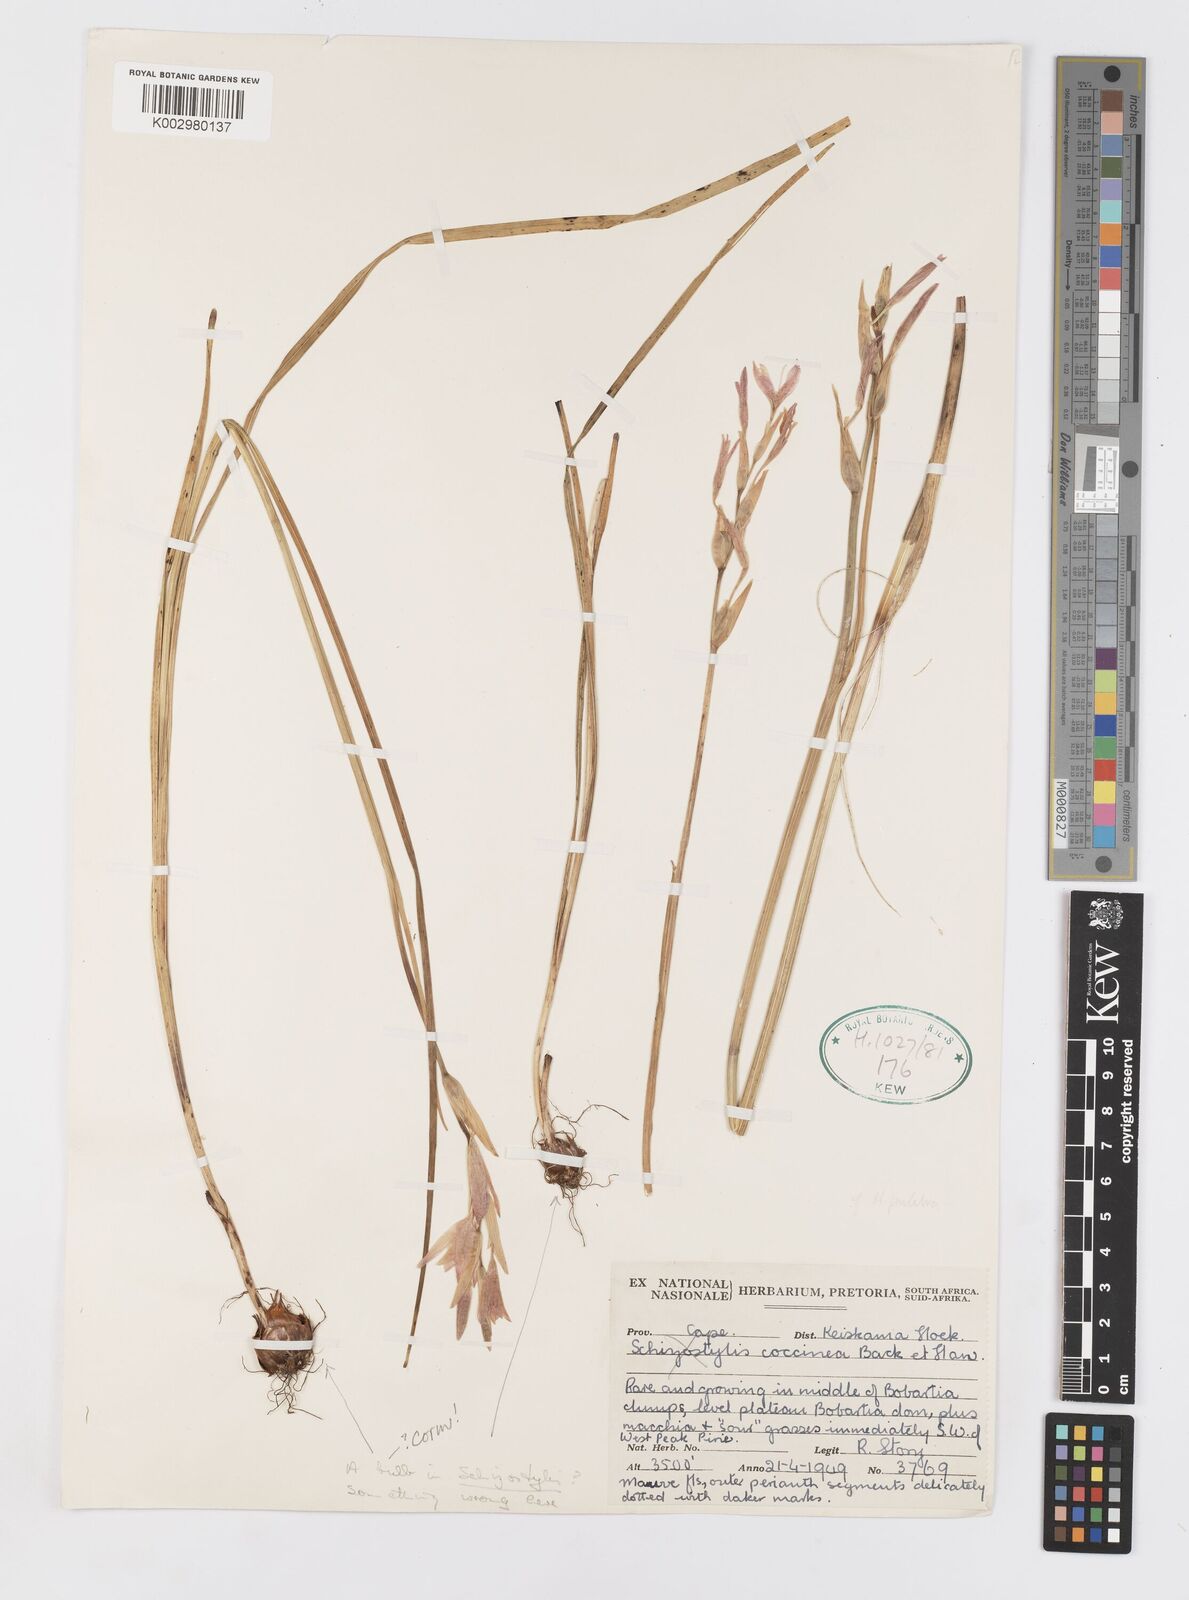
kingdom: Plantae
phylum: Tracheophyta
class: Liliopsida
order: Asparagales
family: Iridaceae
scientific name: Iridaceae
